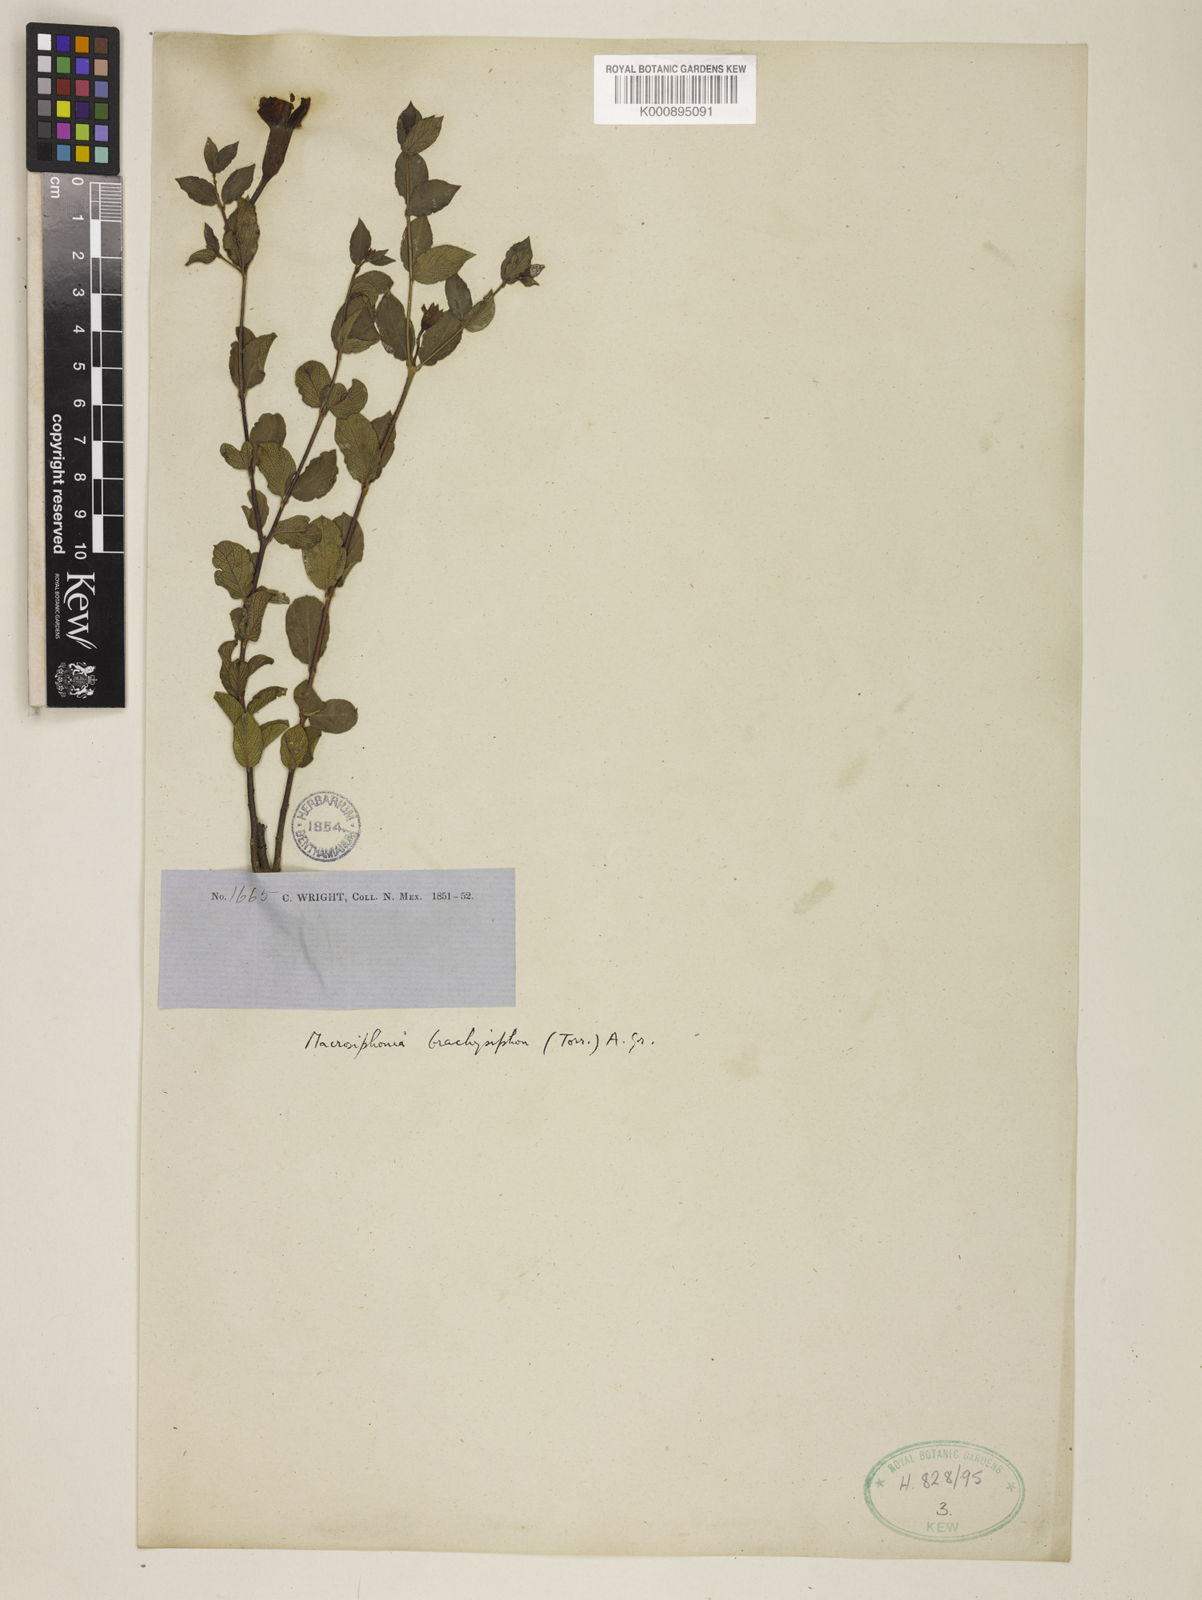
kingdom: Plantae
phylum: Tracheophyta
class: Magnoliopsida
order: Gentianales
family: Apocynaceae
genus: Mandevilla
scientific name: Mandevilla brachysiphon
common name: Huachuca mountain rocktrumpet
